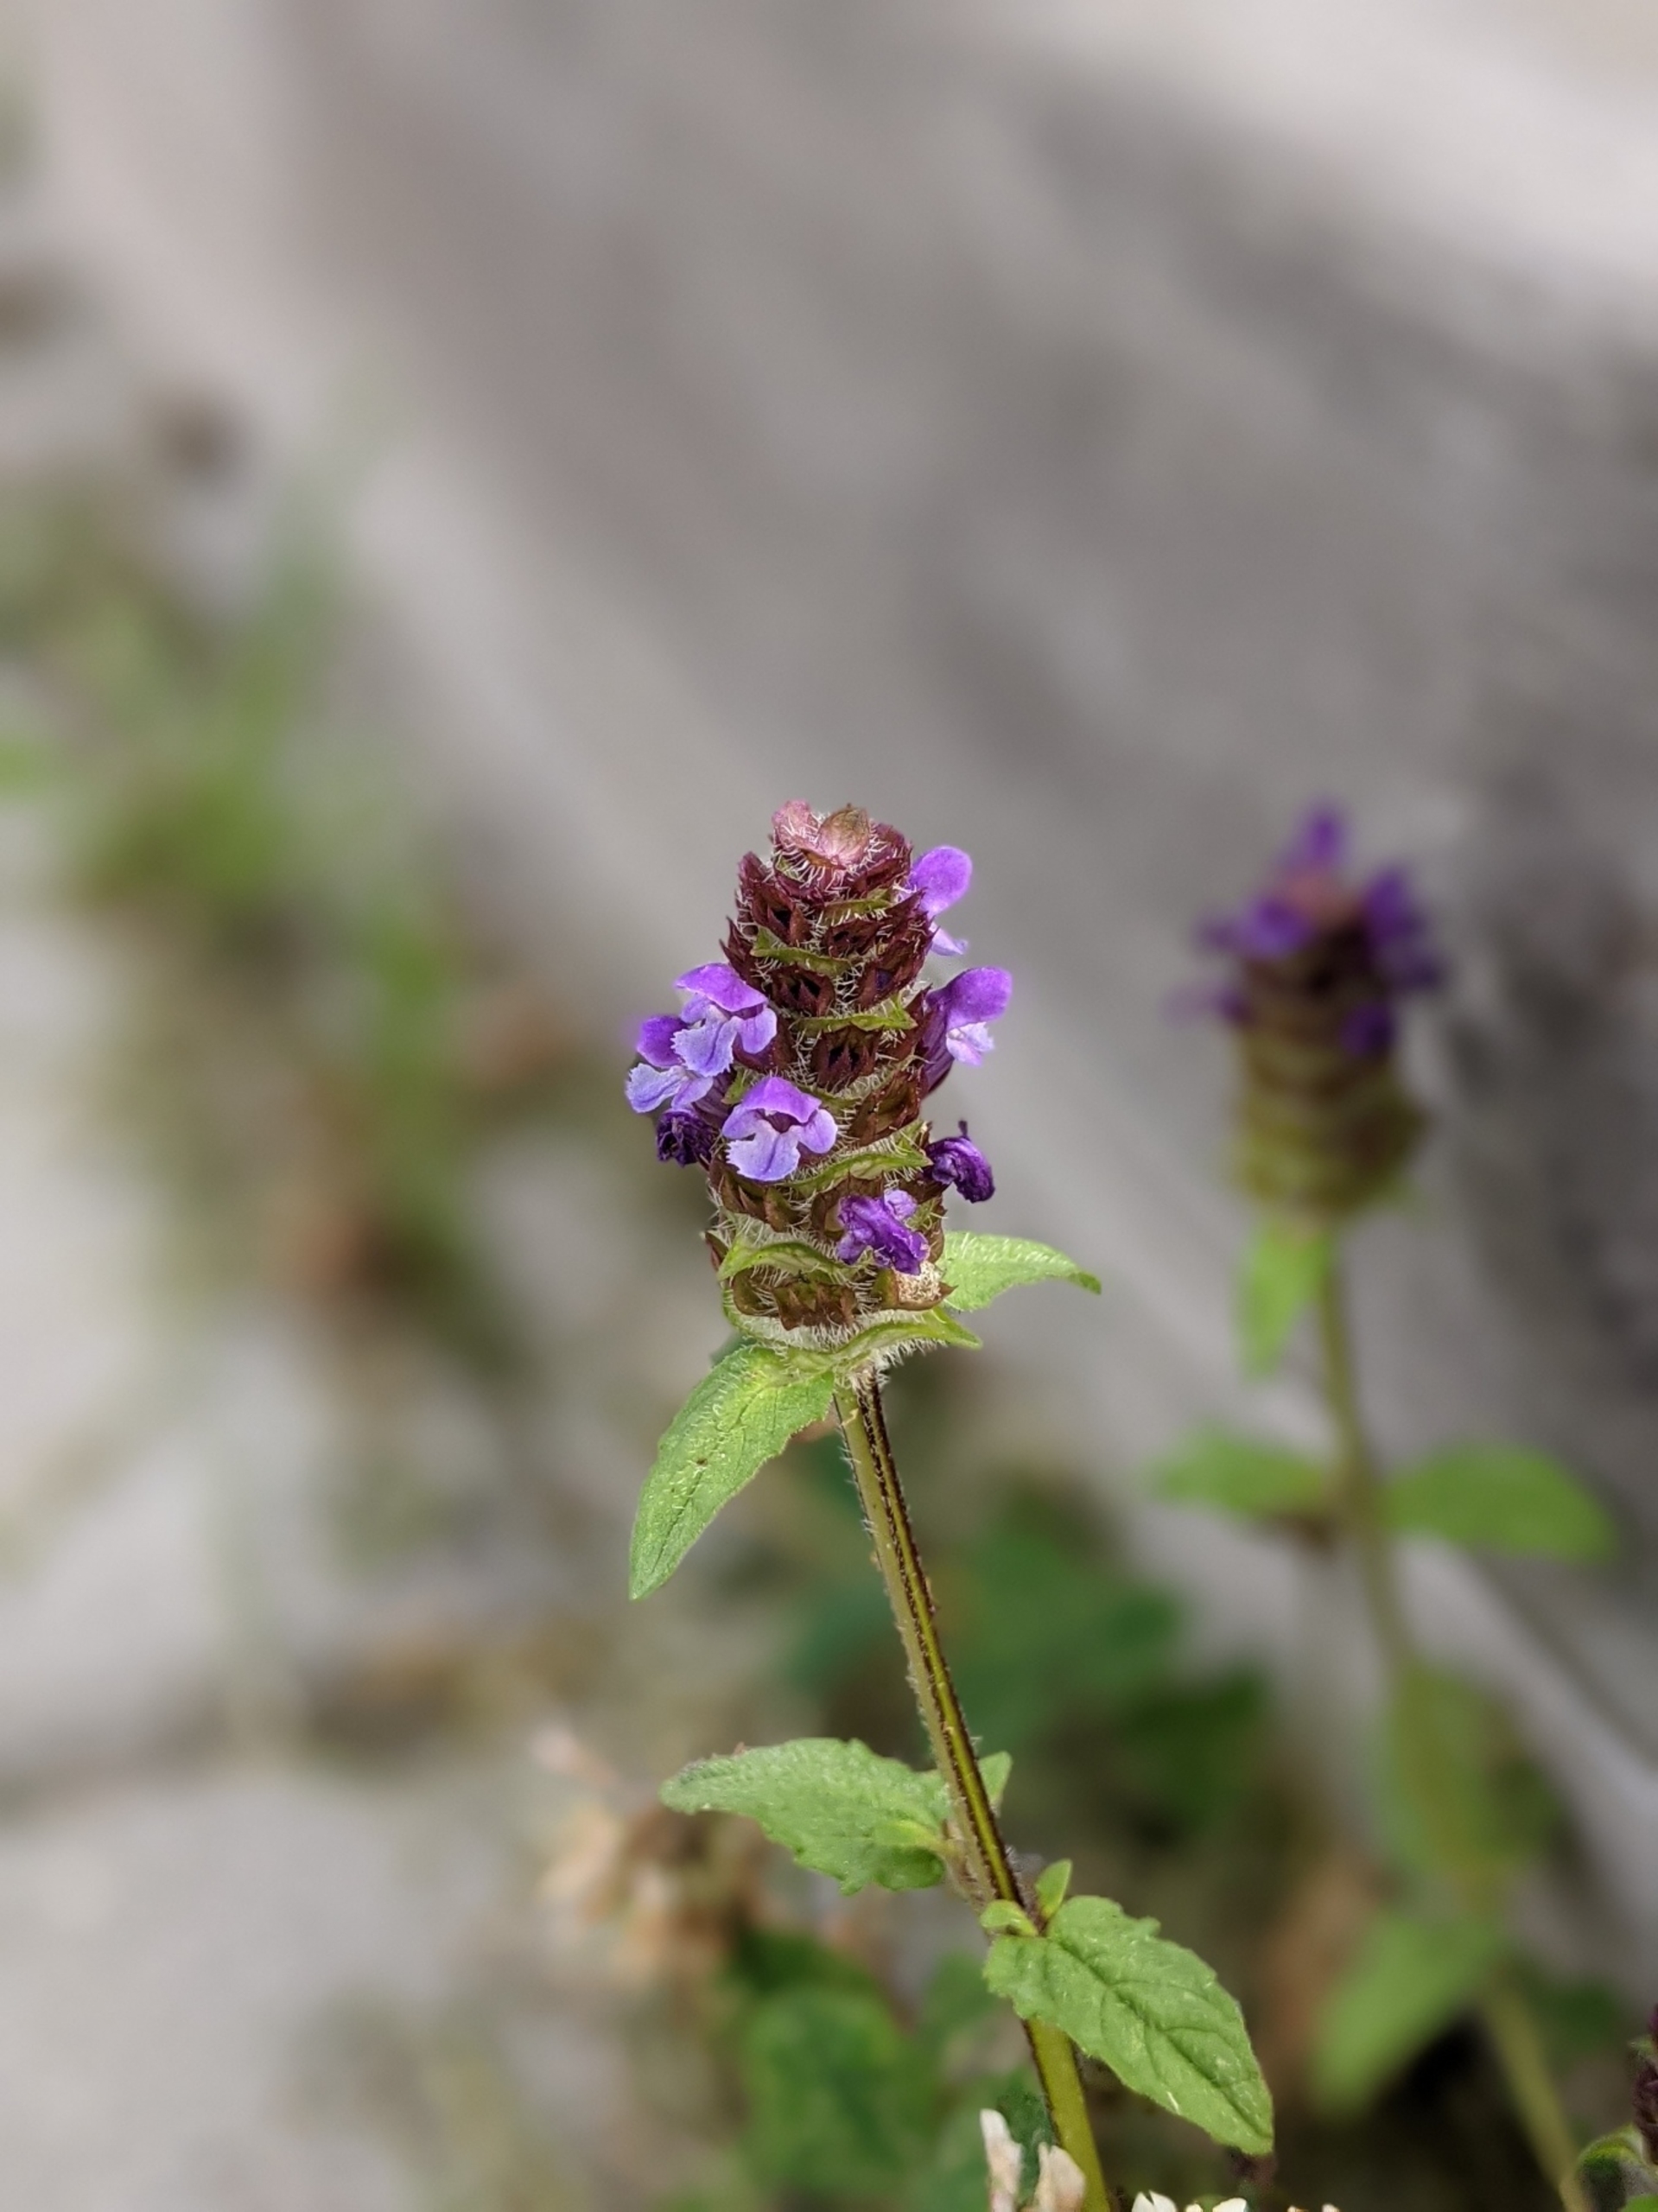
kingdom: Plantae
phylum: Tracheophyta
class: Magnoliopsida
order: Lamiales
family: Lamiaceae
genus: Prunella
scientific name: Prunella vulgaris
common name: Almindelig brunelle
